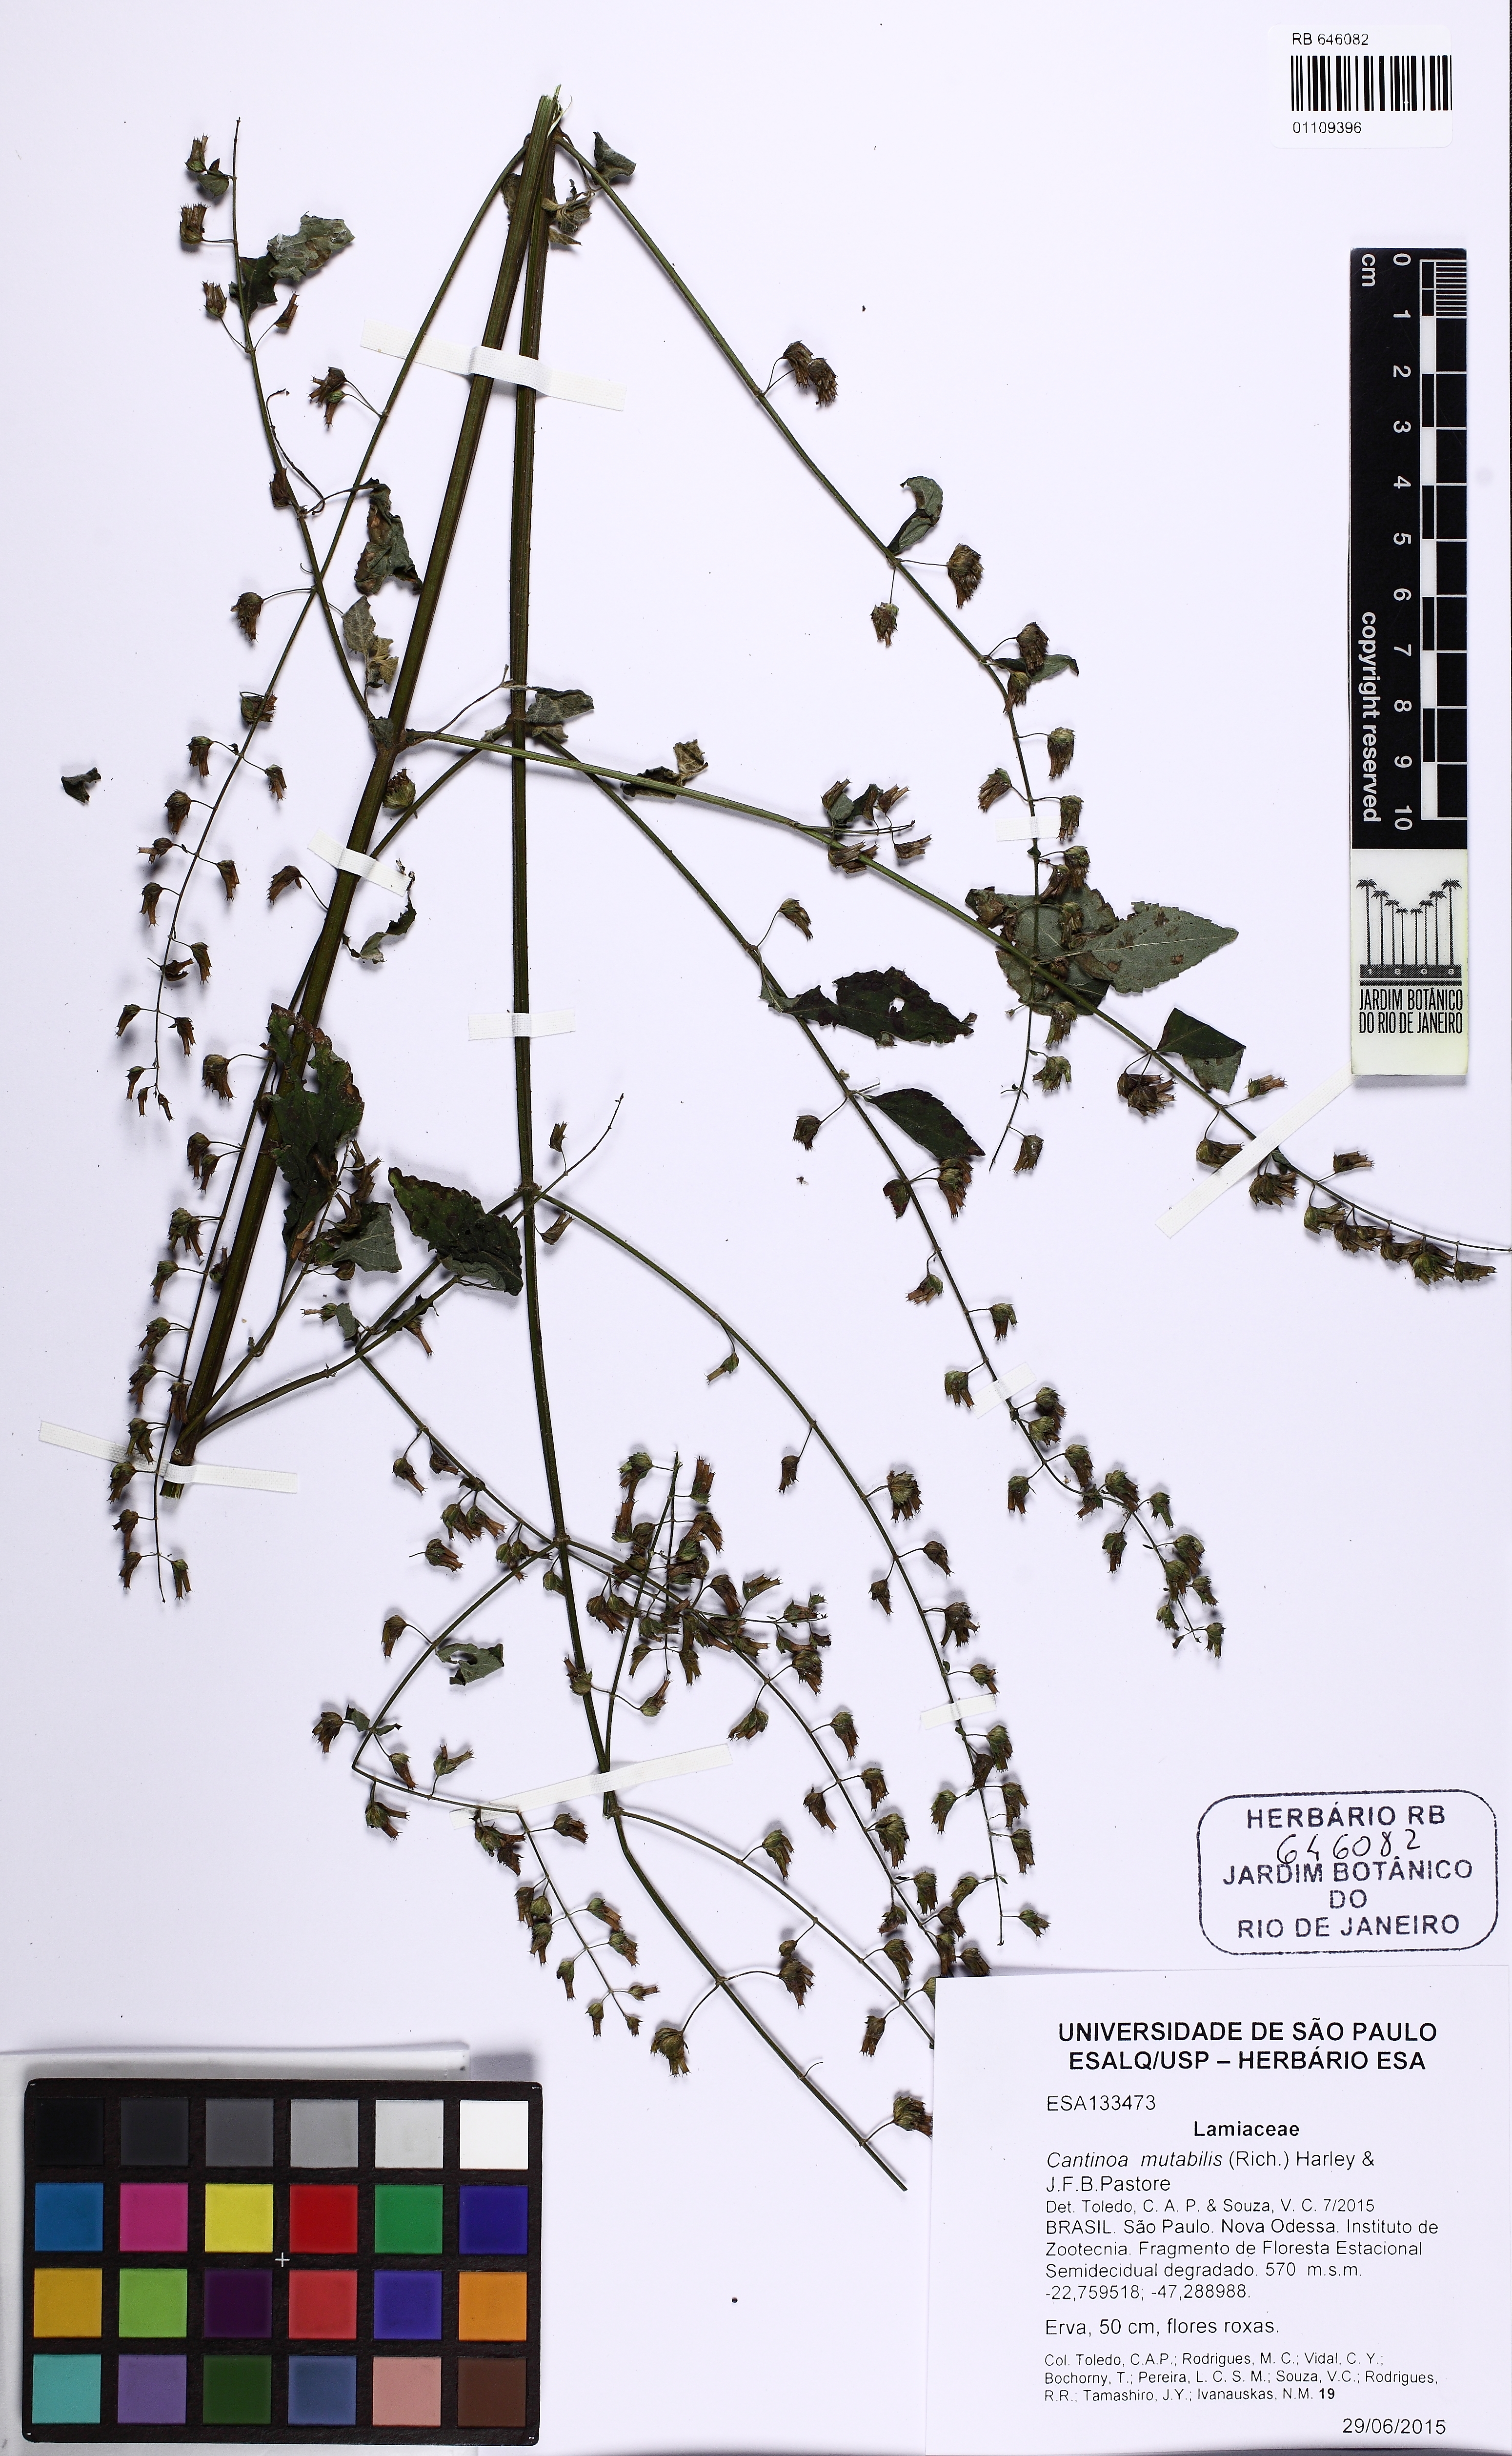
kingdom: Plantae
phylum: Tracheophyta
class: Magnoliopsida
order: Lamiales
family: Lamiaceae
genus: Cantinoa
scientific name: Cantinoa mutabilis
